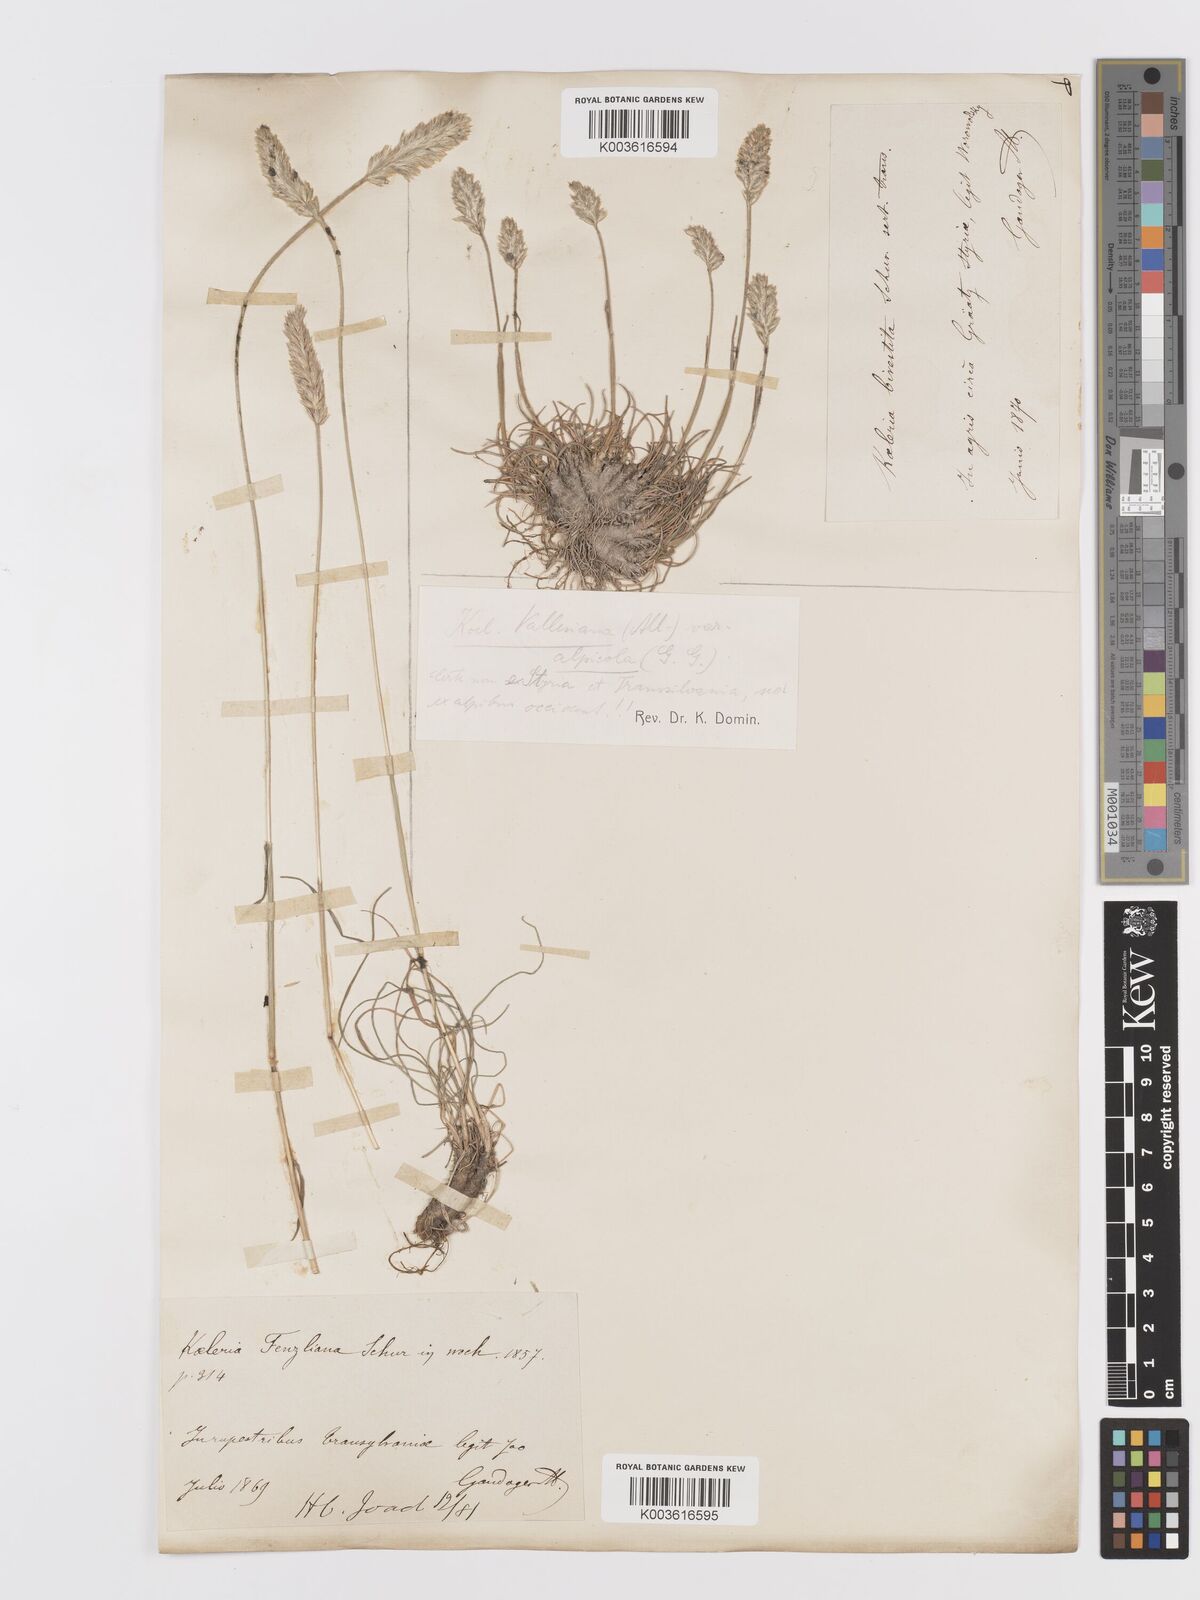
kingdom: Plantae
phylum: Tracheophyta
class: Liliopsida
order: Poales
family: Poaceae
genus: Koeleria
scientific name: Koeleria vallesiana
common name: Somerset hair-grass
